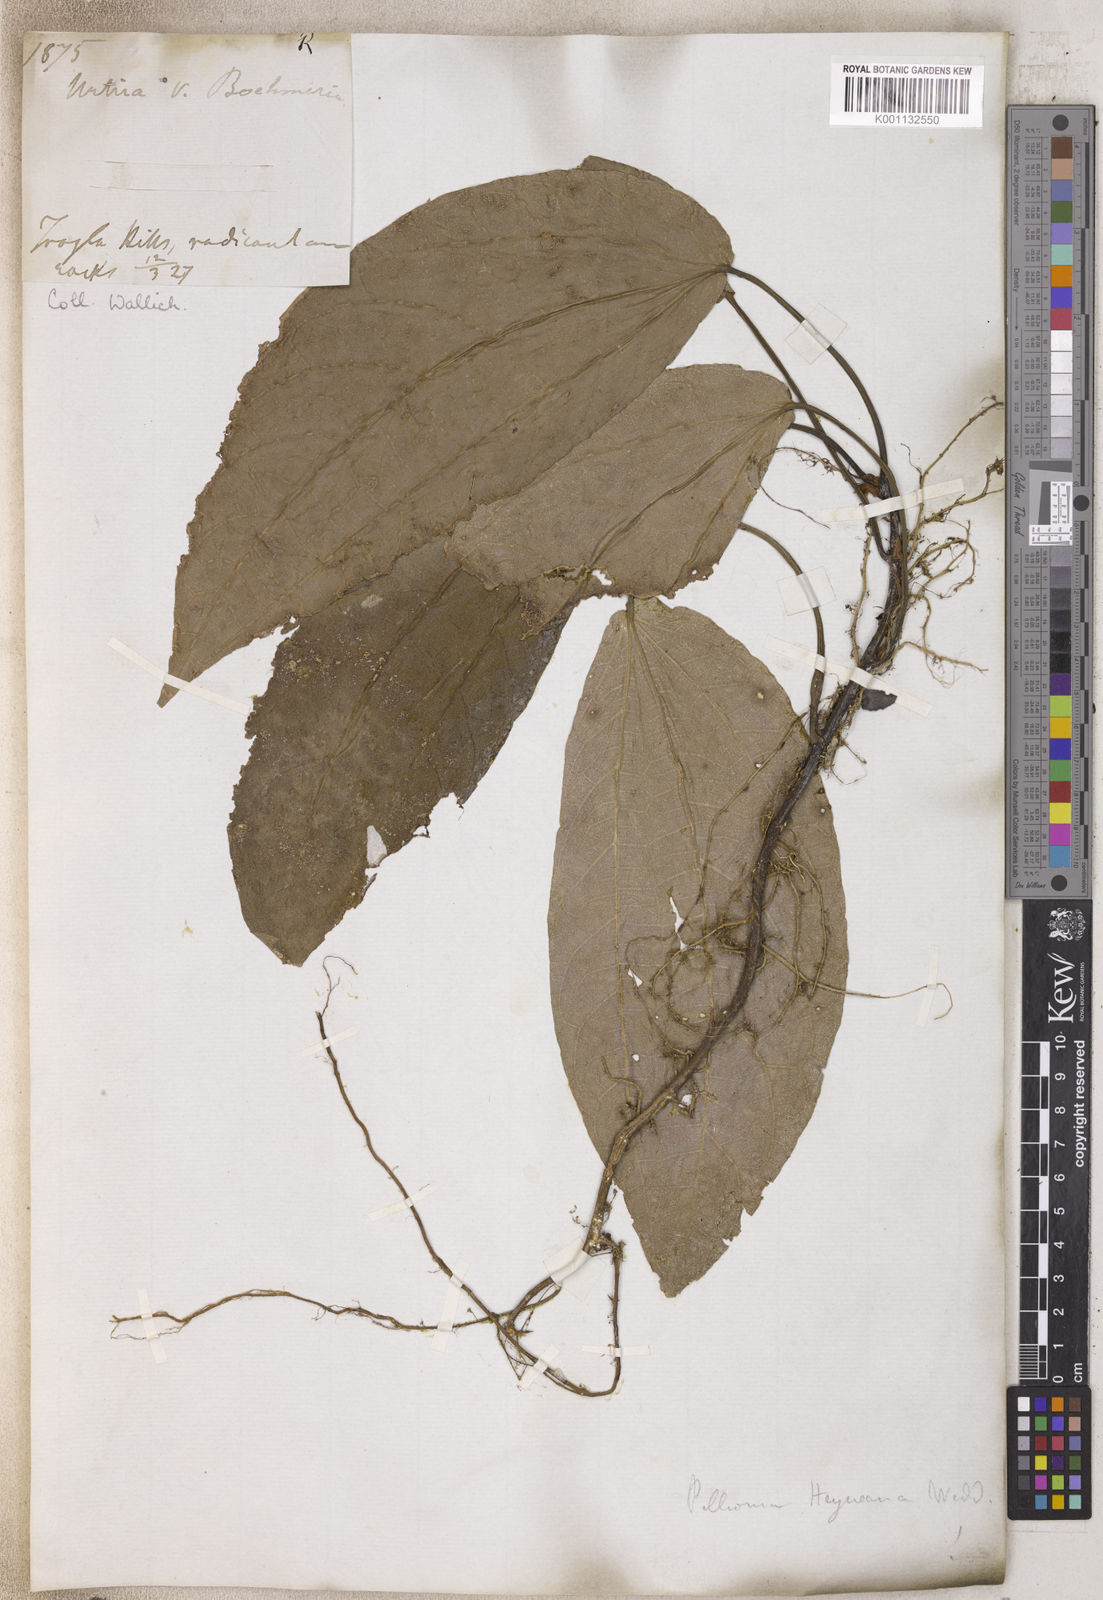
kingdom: Plantae
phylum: Tracheophyta
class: Magnoliopsida
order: Rosales
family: Urticaceae
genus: Pellionia
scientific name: Pellionia
